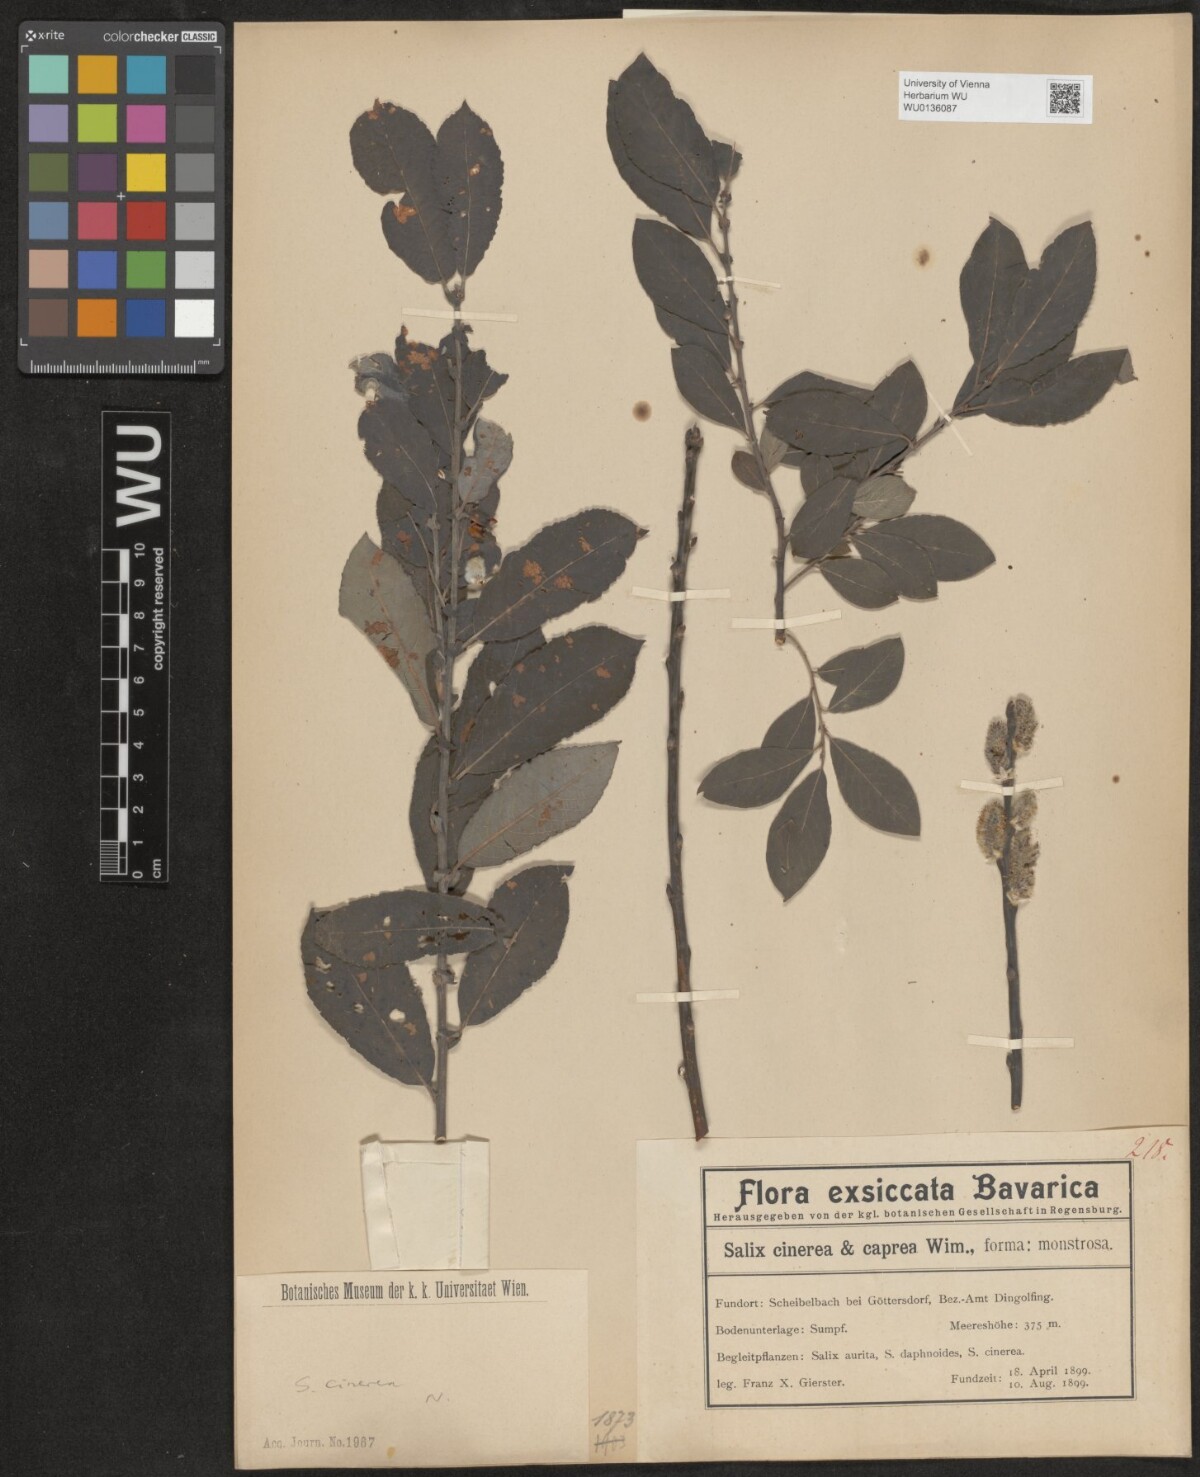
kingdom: Plantae
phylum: Tracheophyta
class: Magnoliopsida
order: Malpighiales
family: Salicaceae
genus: Salix
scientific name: Salix cinerea
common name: Common sallow
